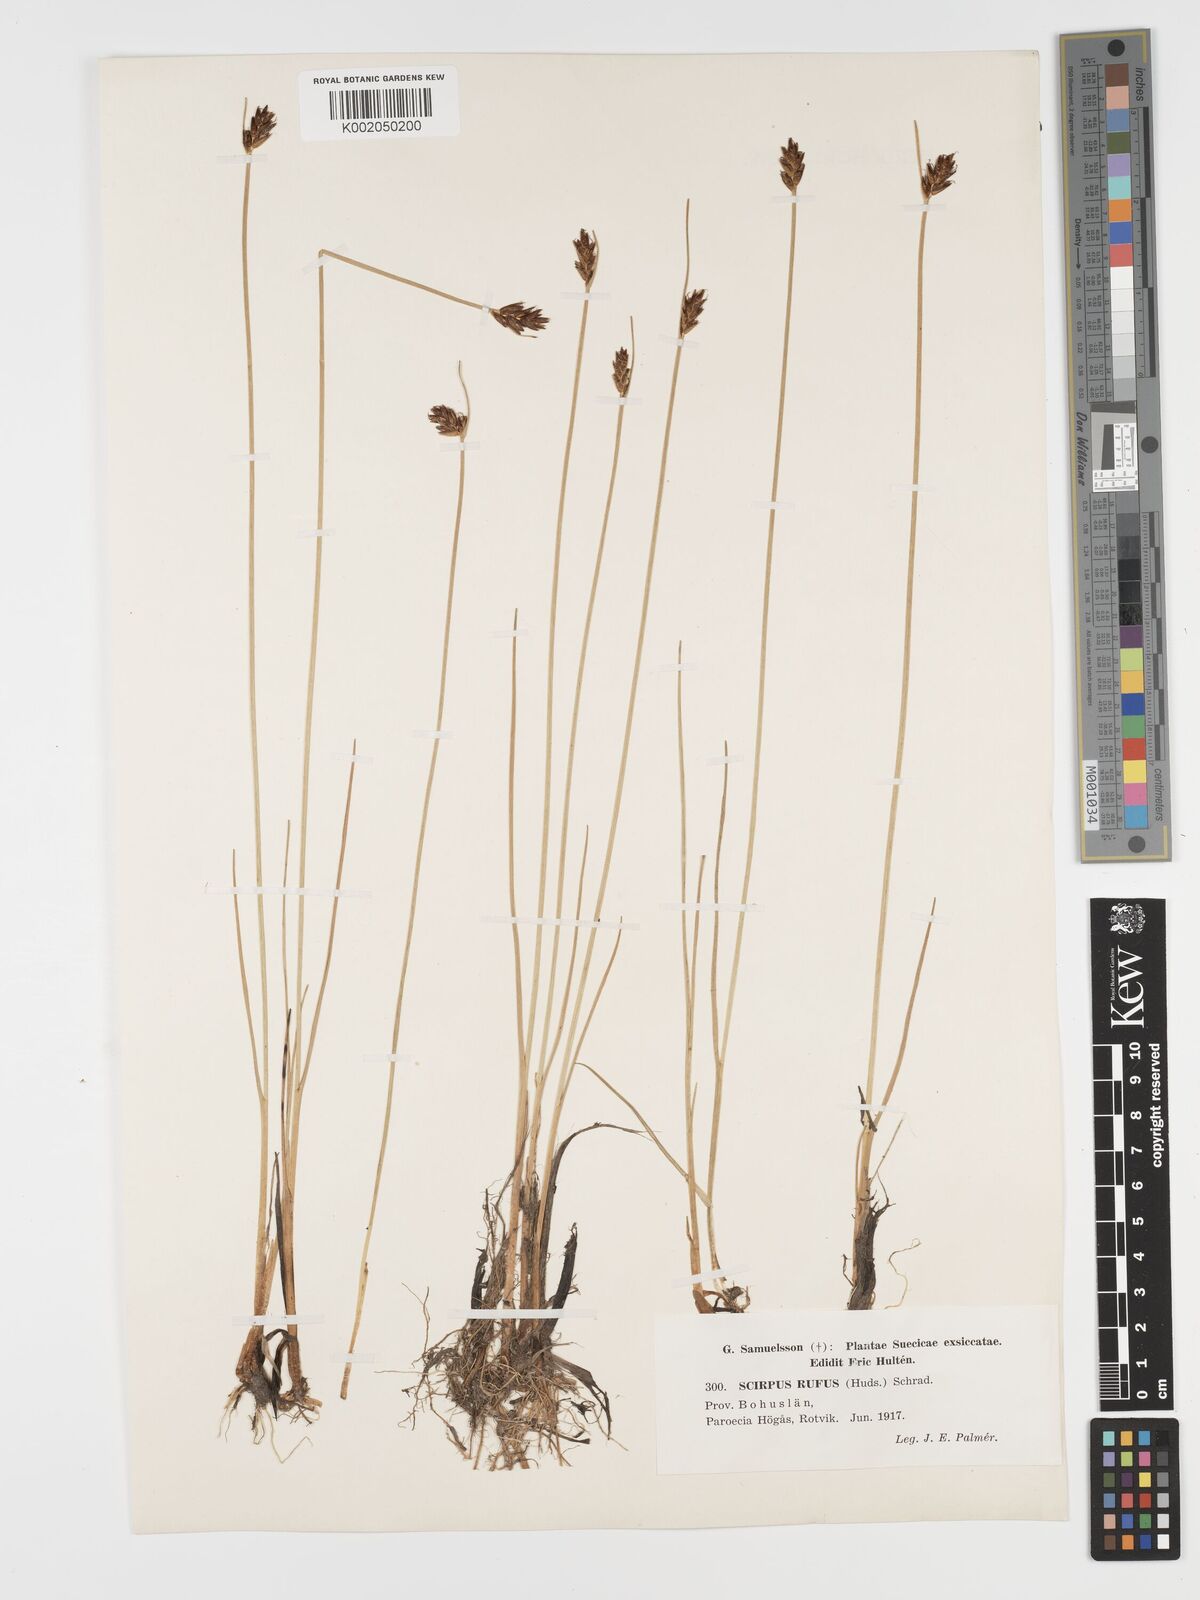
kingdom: Plantae
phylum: Tracheophyta
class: Liliopsida
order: Poales
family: Cyperaceae
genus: Blysmus
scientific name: Blysmus rufus
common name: Saltmarsh flat-sedge
